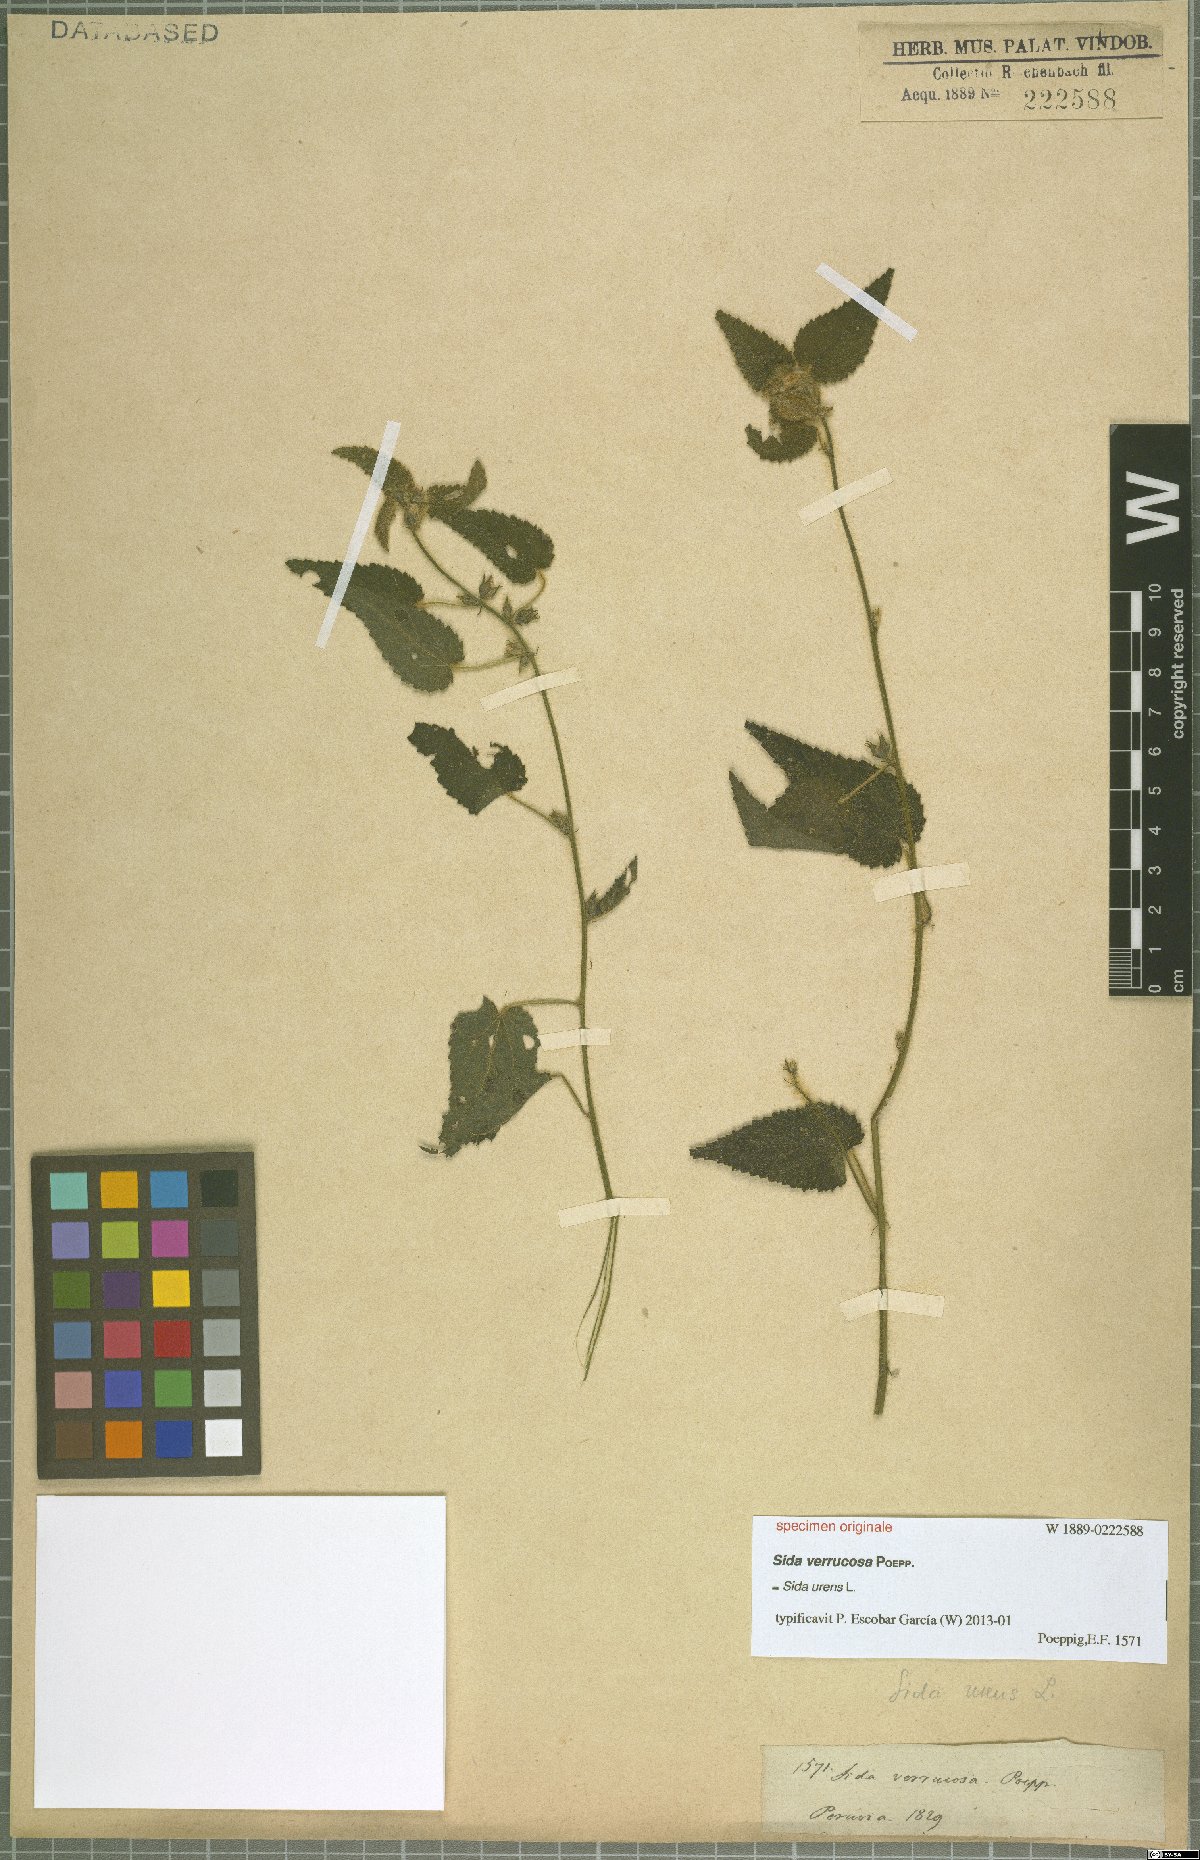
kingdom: Plantae
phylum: Tracheophyta
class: Magnoliopsida
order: Malvales
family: Malvaceae
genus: Sida
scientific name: Sida urens
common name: Tropical fanpetals
